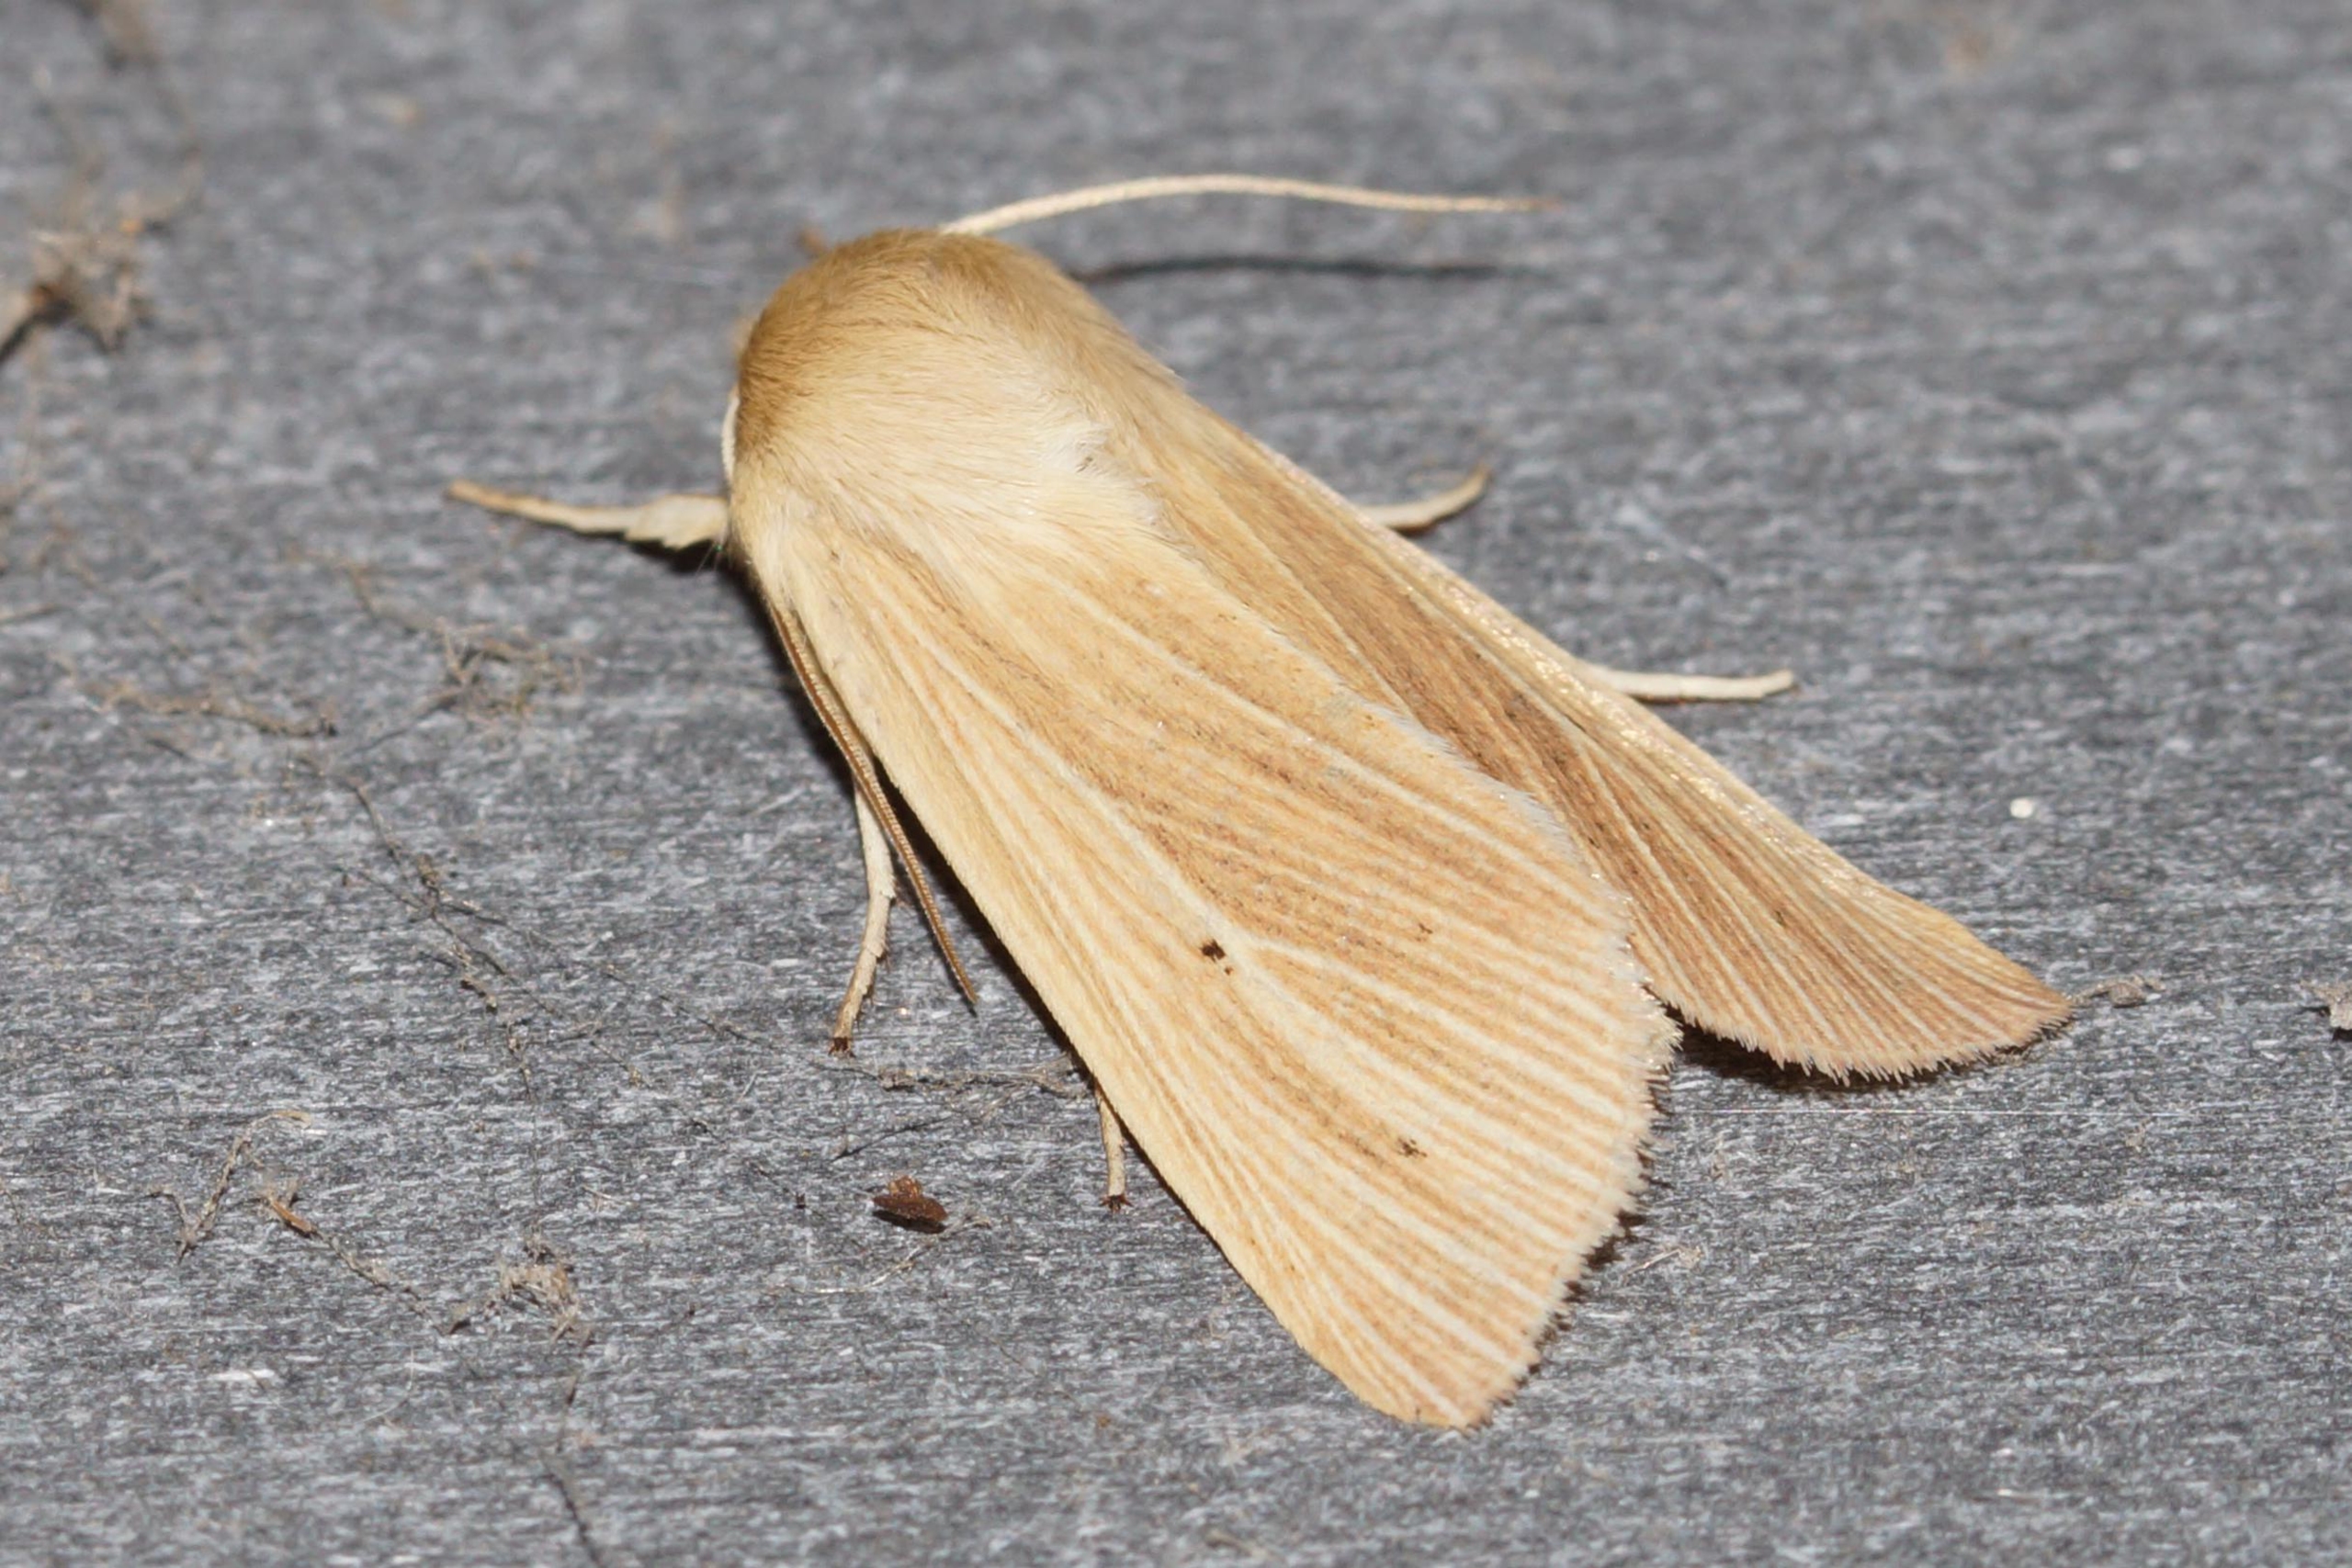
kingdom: Animalia
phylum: Arthropoda
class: Insecta
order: Lepidoptera
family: Noctuidae
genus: Mythimna
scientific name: Mythimna pallens
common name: Halmugle
